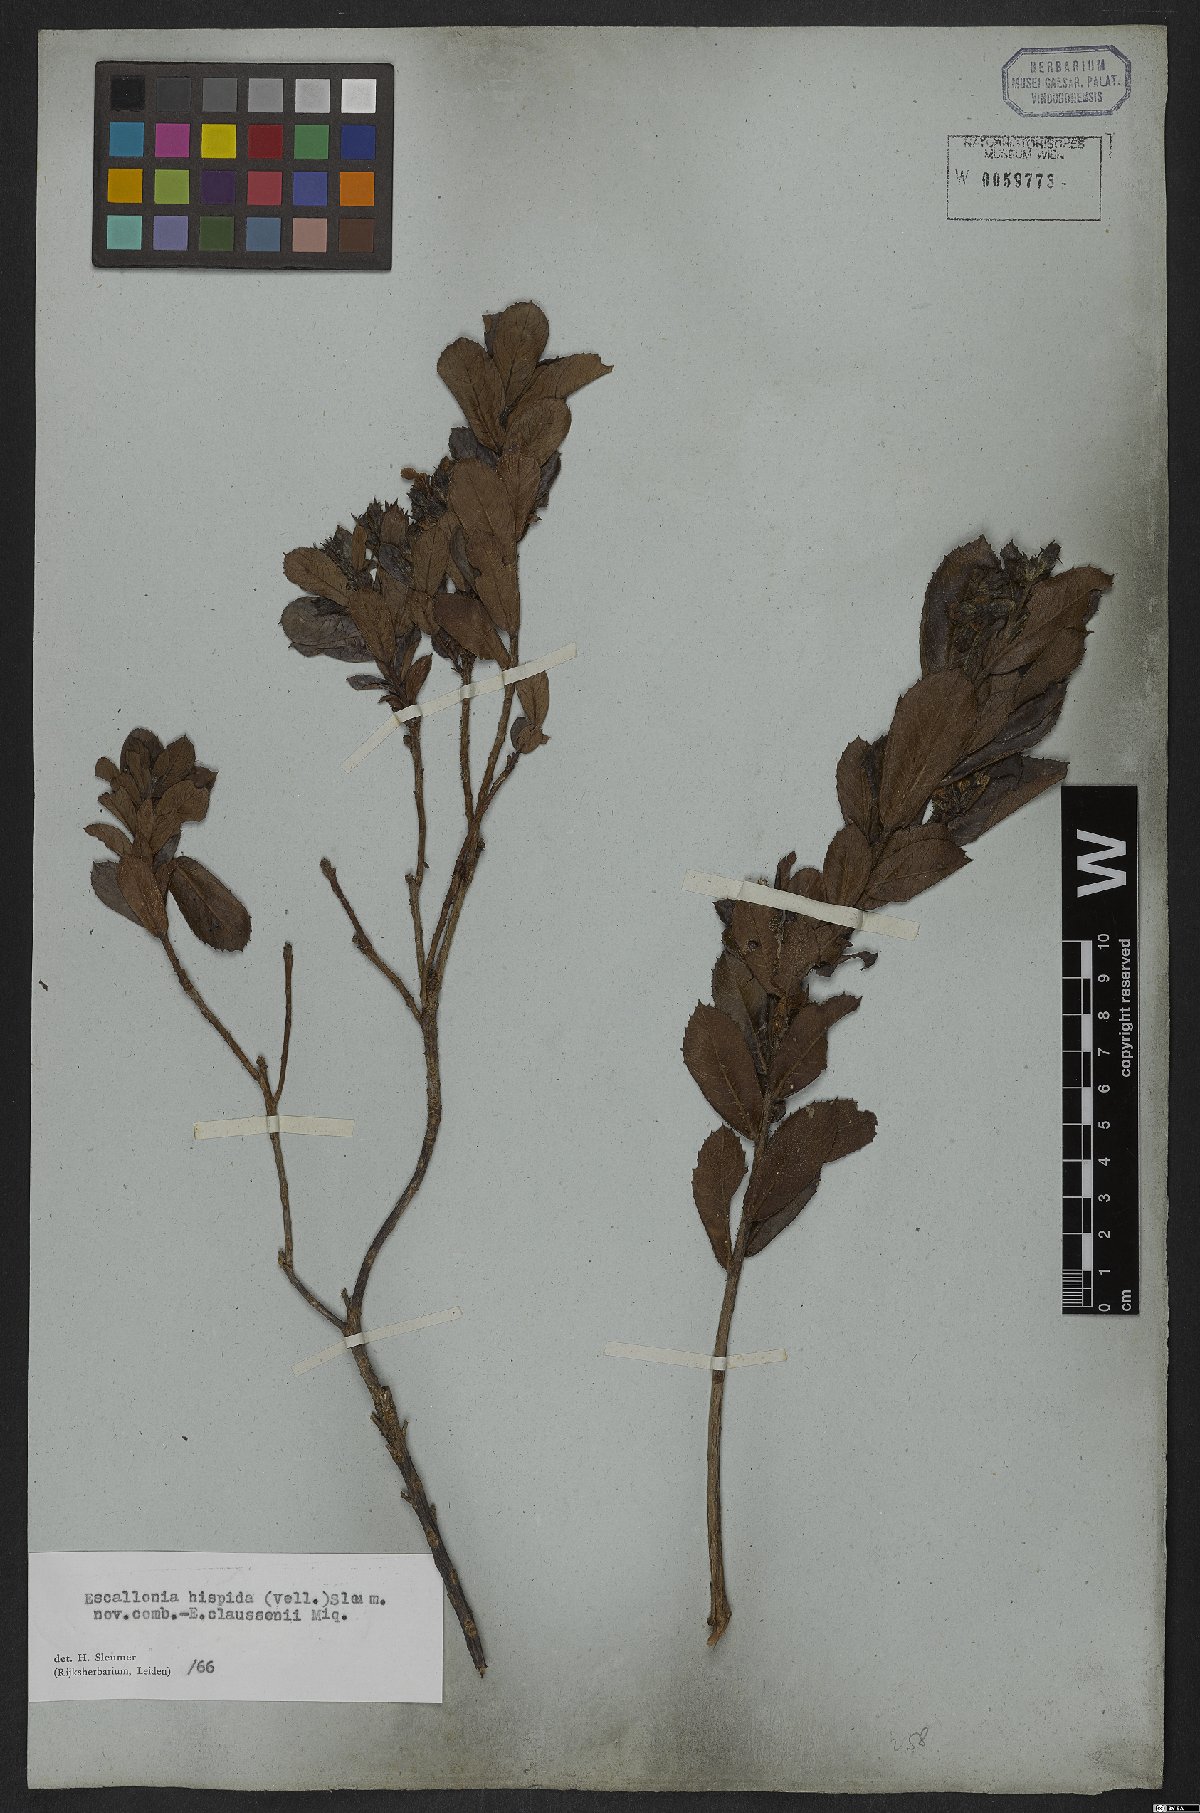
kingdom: Plantae
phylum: Tracheophyta
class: Magnoliopsida
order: Escalloniales
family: Escalloniaceae
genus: Escallonia
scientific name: Escallonia hispida
